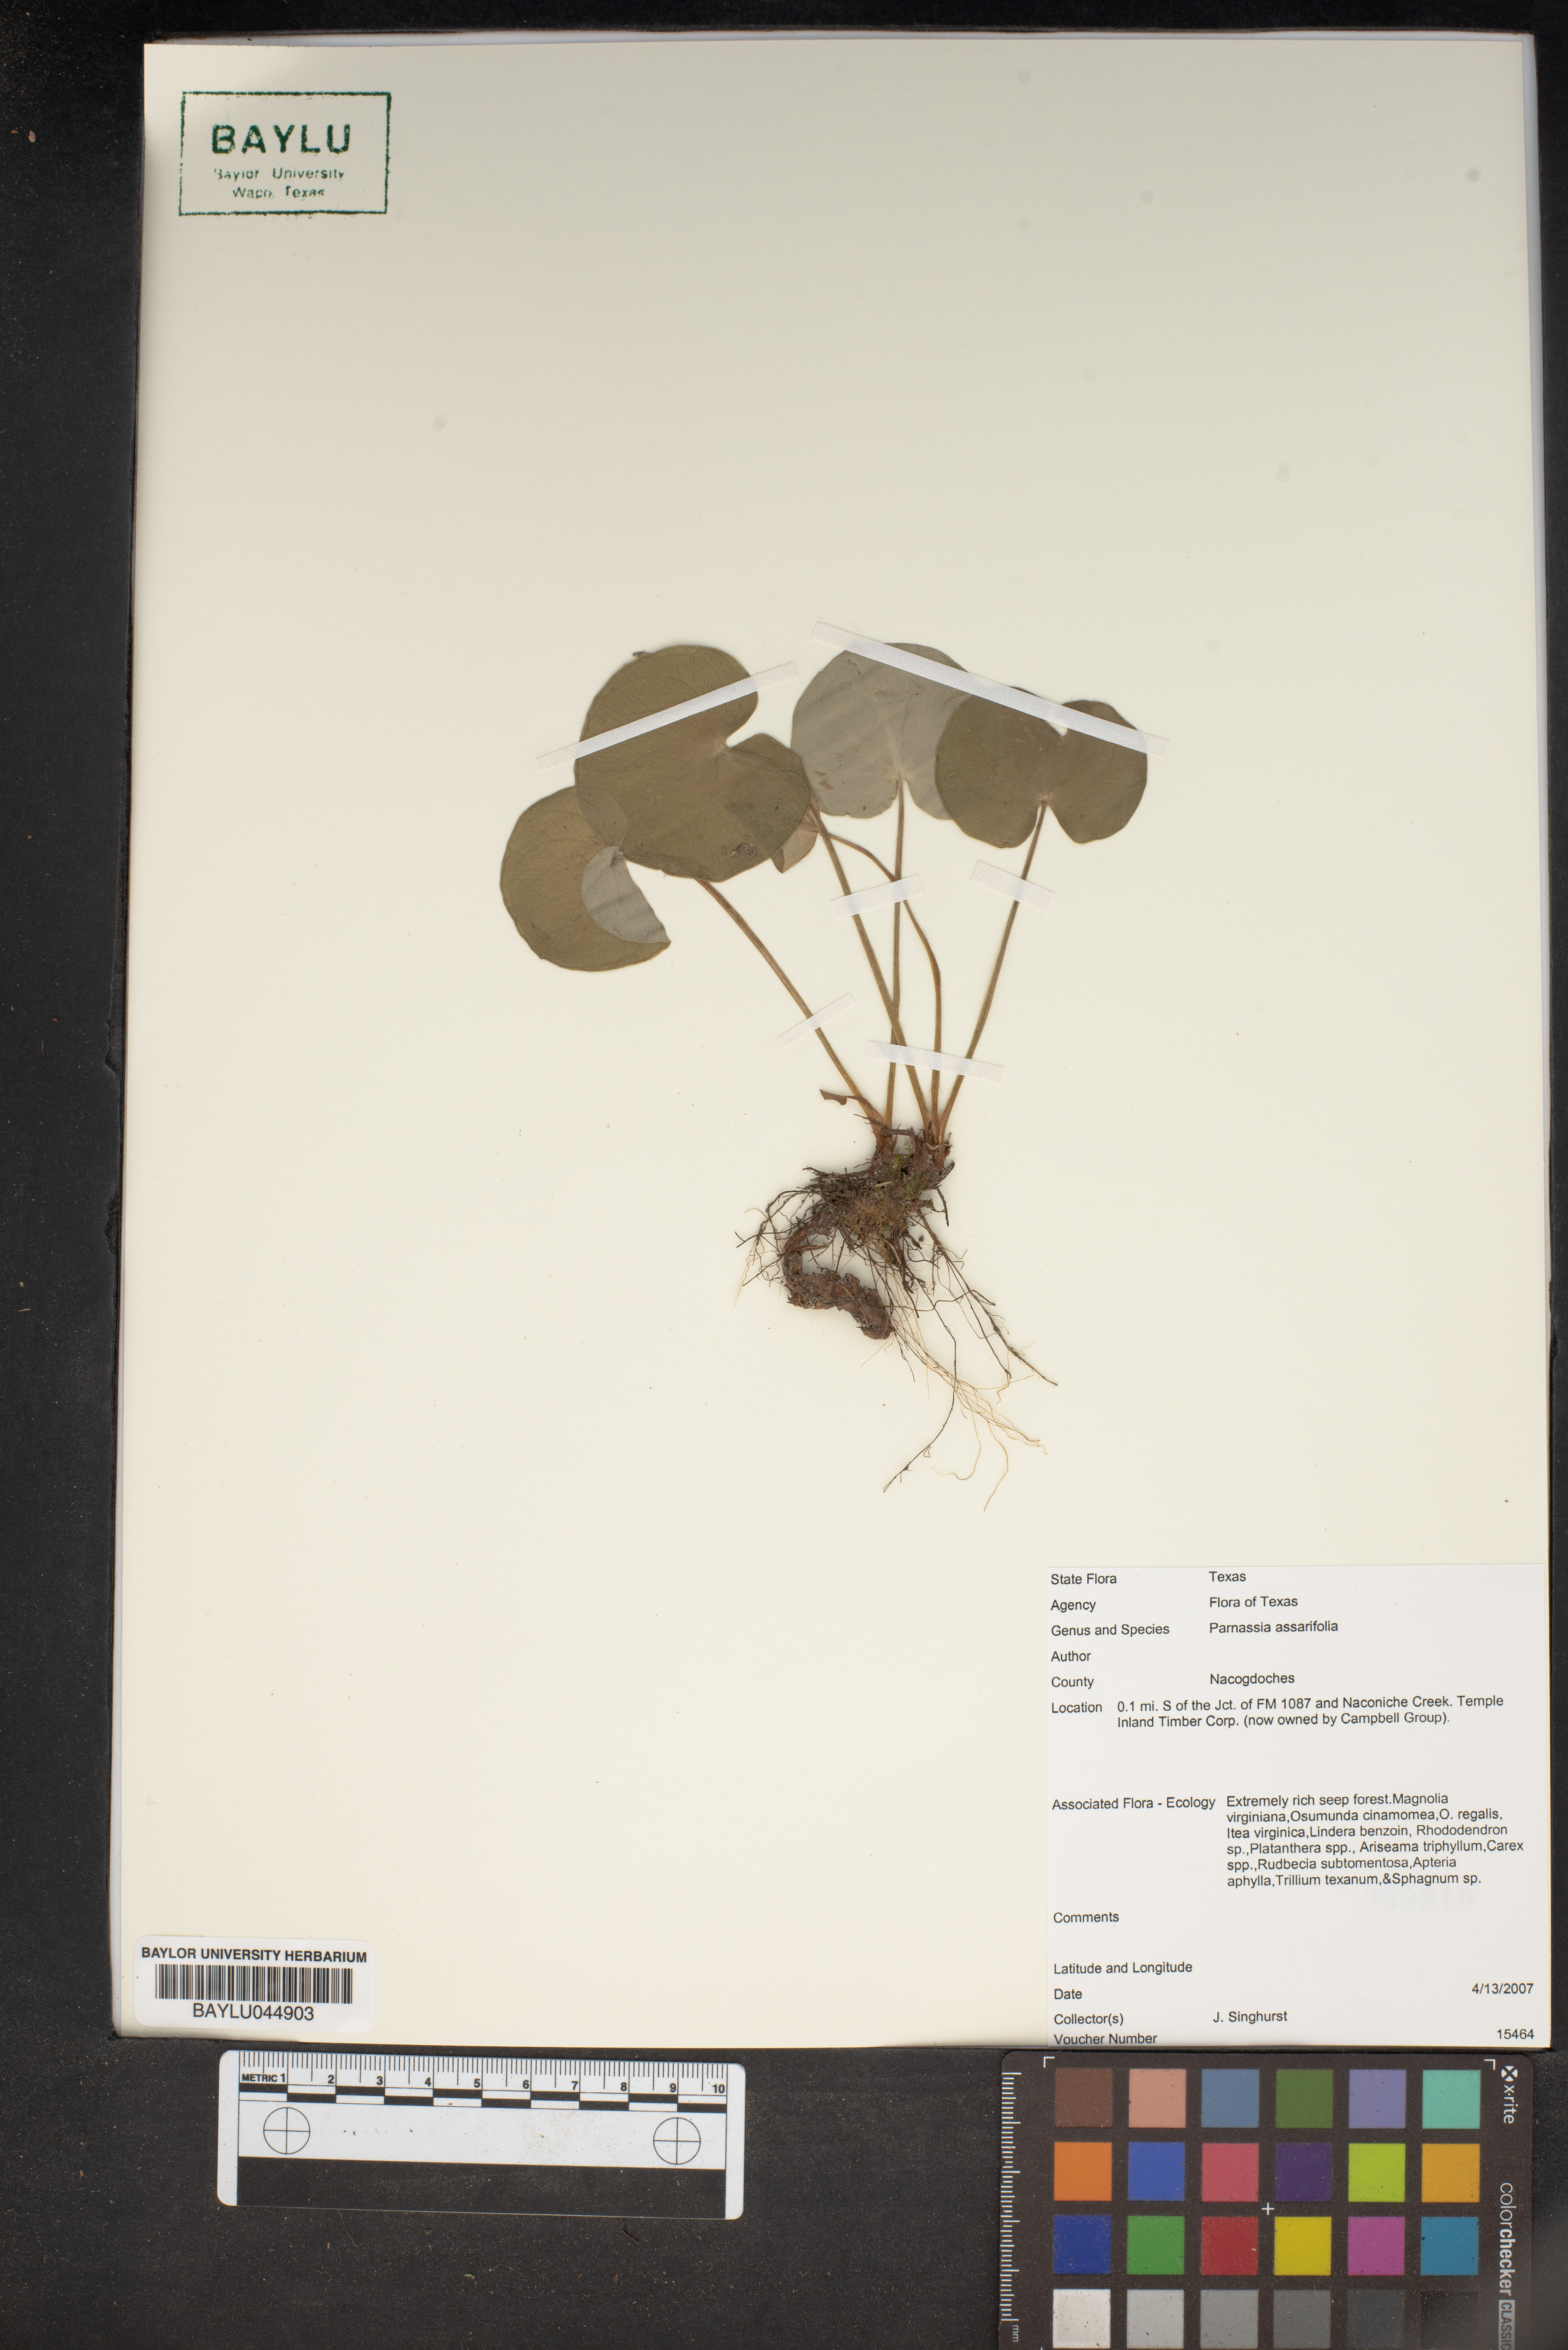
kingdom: Plantae
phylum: Tracheophyta
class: Magnoliopsida
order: Celastrales
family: Parnassiaceae
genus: Parnassia
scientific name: Parnassia asarifolia
